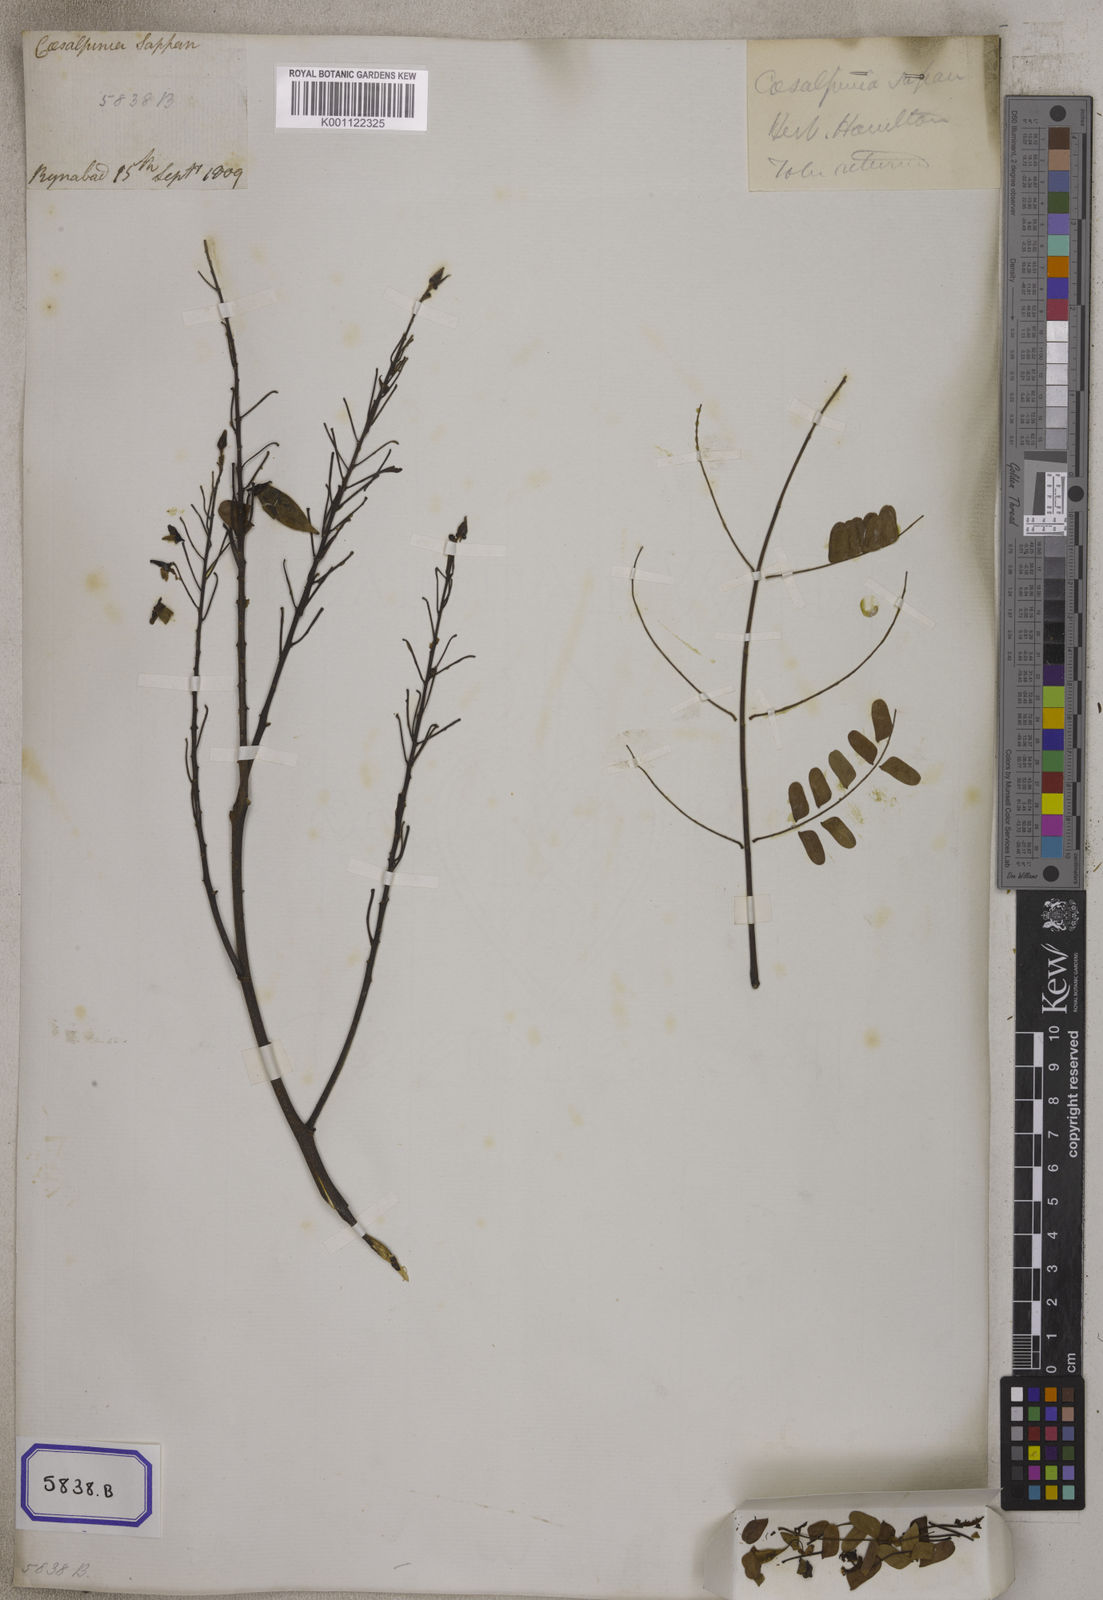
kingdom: Plantae
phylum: Tracheophyta
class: Magnoliopsida
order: Fabales
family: Fabaceae
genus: Biancaea
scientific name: Biancaea sappan
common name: Sappan
